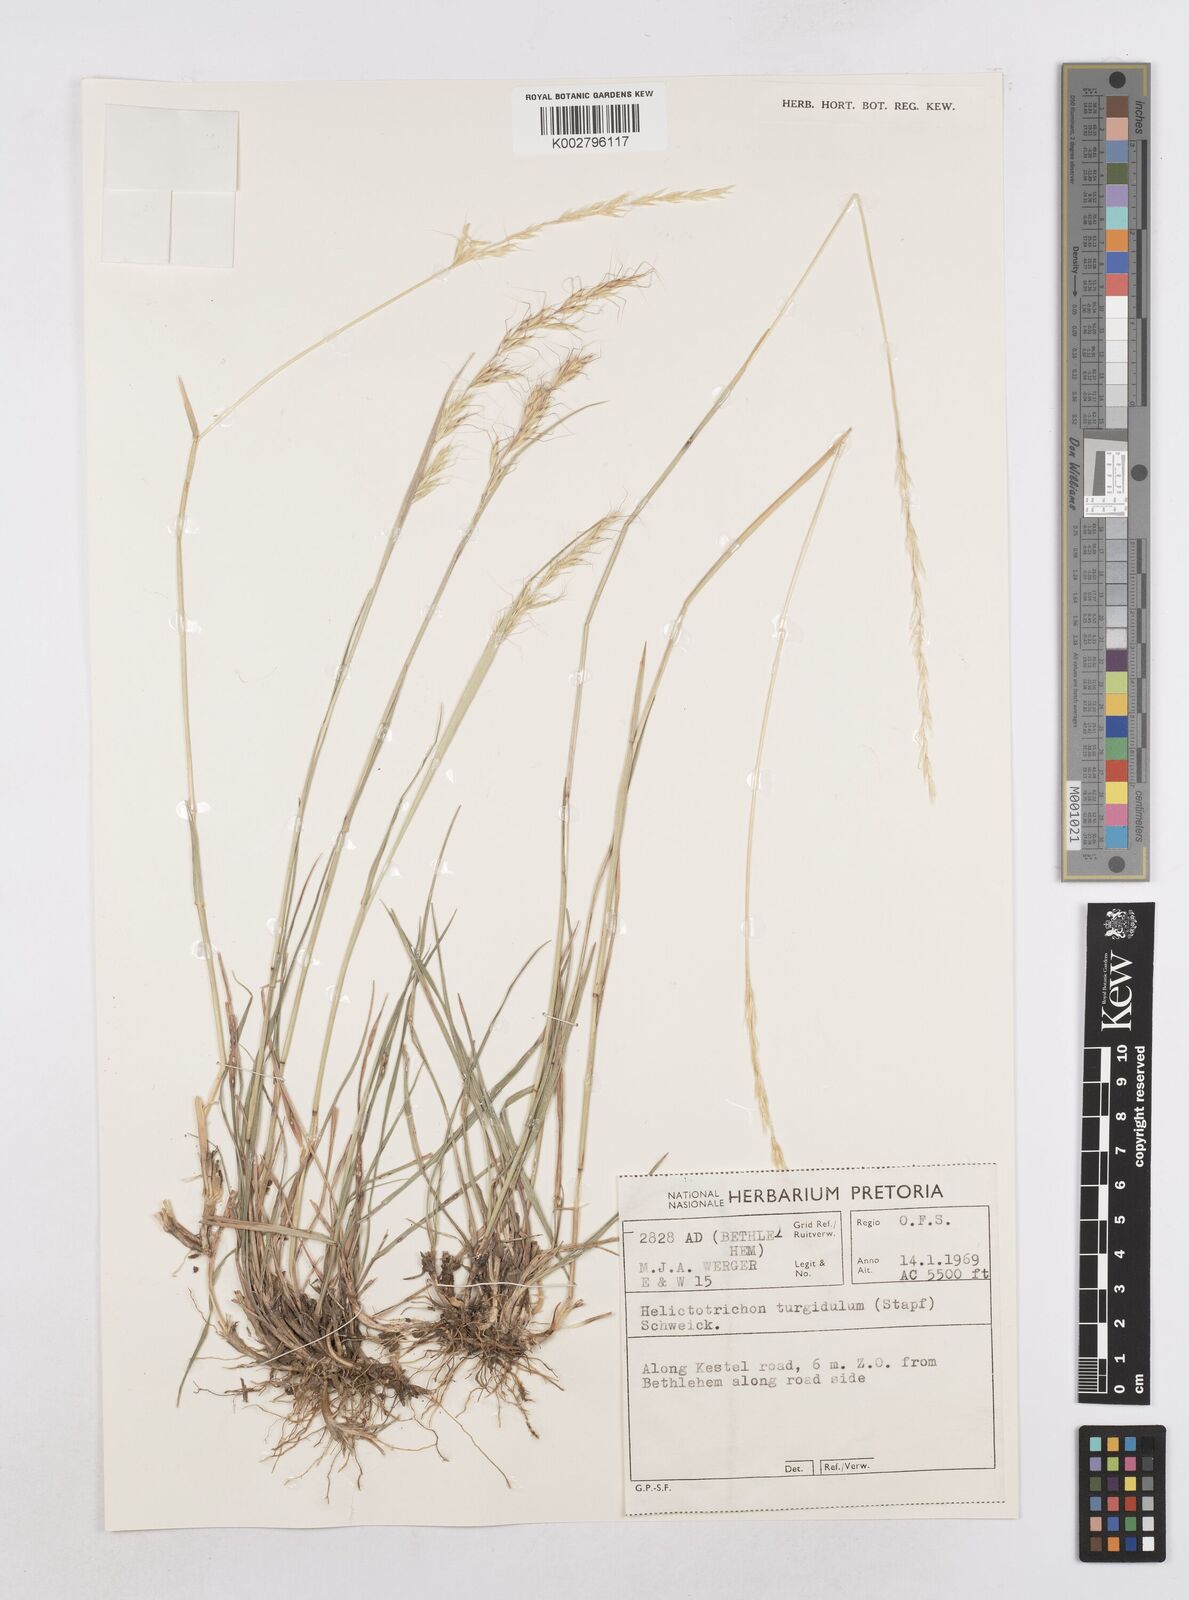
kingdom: Plantae
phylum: Tracheophyta
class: Liliopsida
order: Poales
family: Poaceae
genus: Trisetopsis
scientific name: Trisetopsis imberbis
